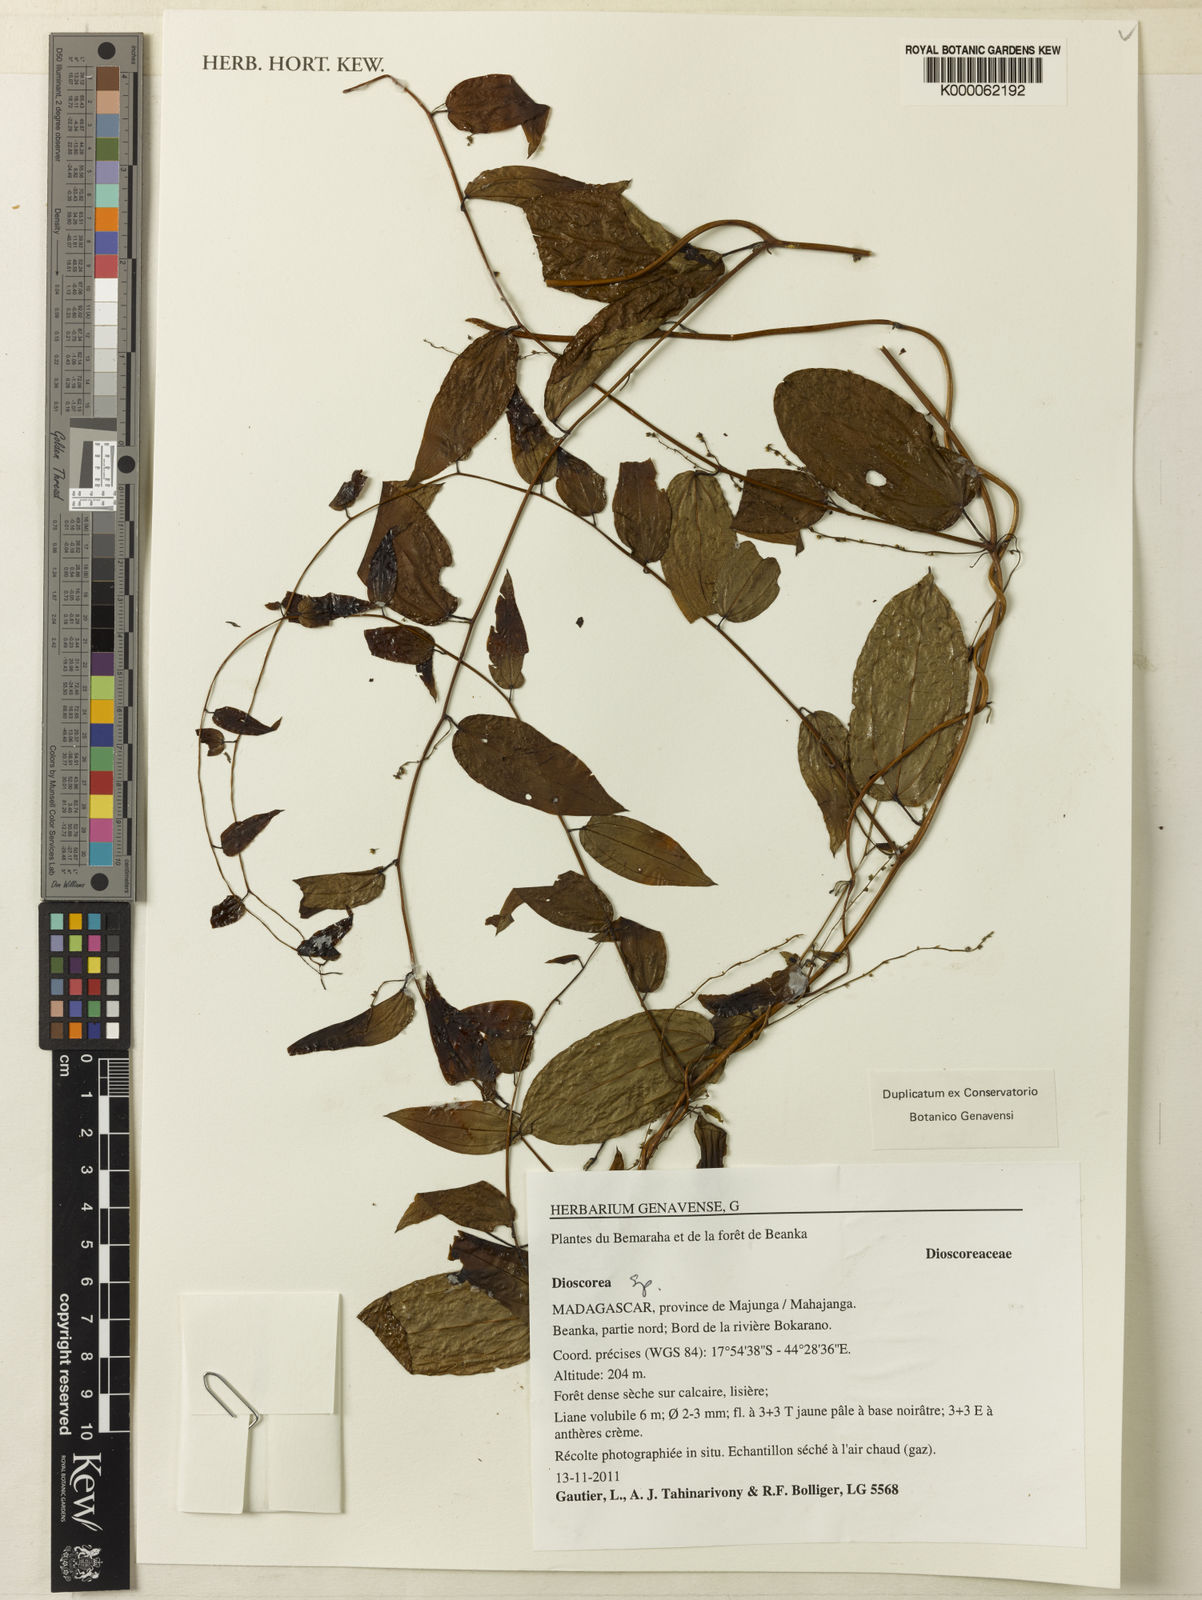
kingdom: Plantae
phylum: Tracheophyta
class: Liliopsida
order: Dioscoreales
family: Dioscoreaceae
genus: Dioscorea
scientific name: Dioscorea
